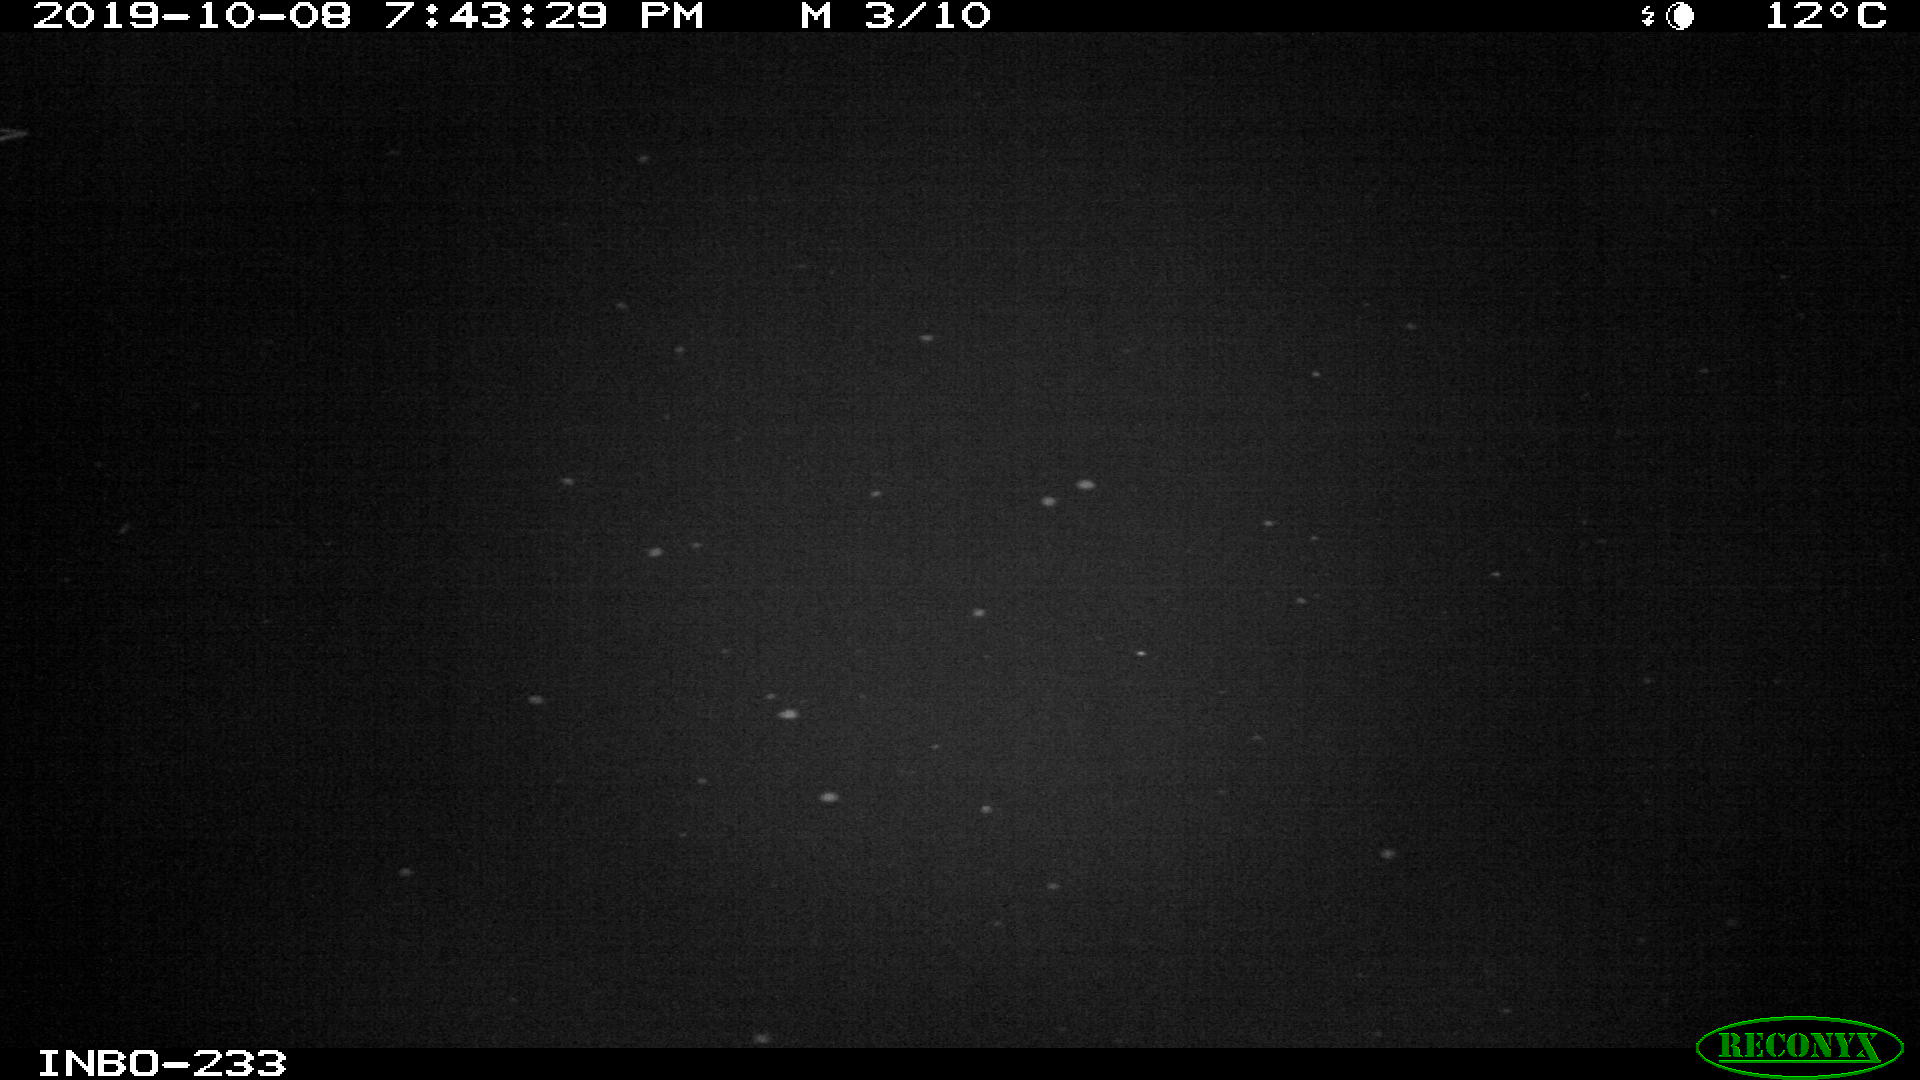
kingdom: Animalia
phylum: Chordata
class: Aves
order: Anseriformes
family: Anatidae
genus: Anas
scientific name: Anas platyrhynchos
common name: Mallard
